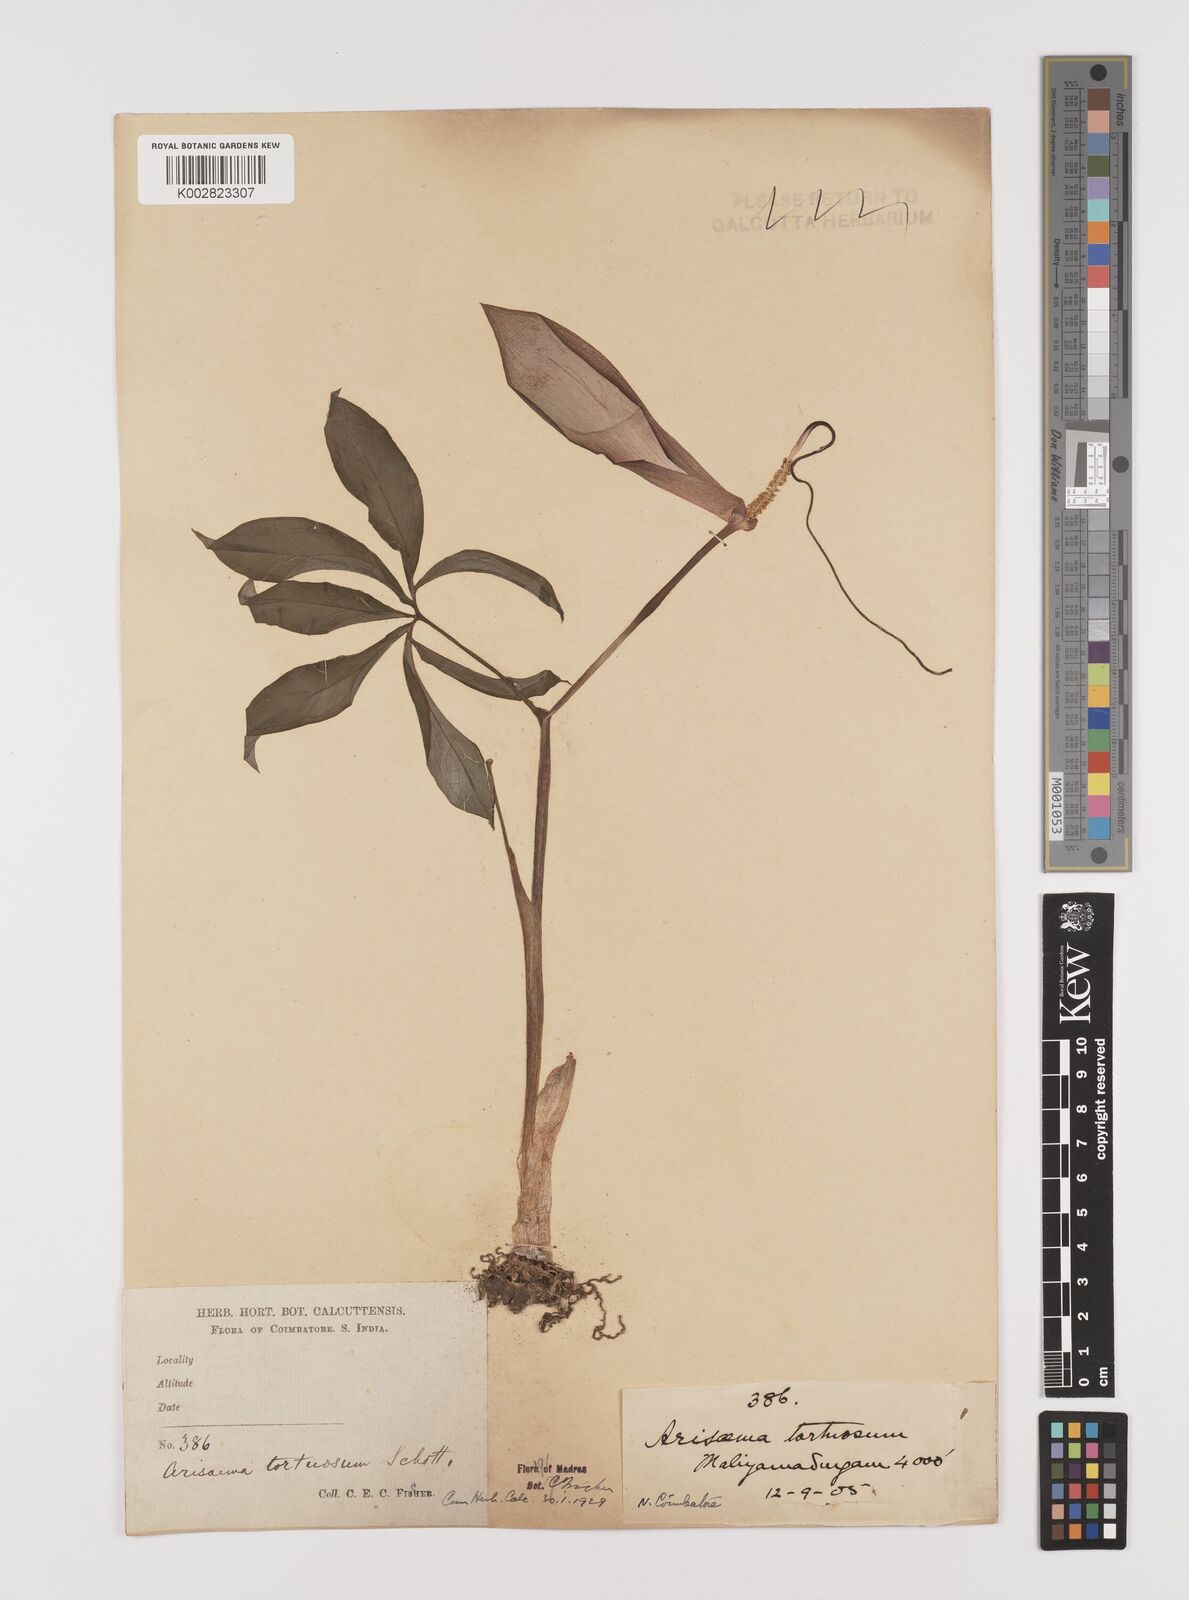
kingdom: Plantae
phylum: Tracheophyta
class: Liliopsida
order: Alismatales
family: Araceae
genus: Arisaema
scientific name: Arisaema tortuosum
